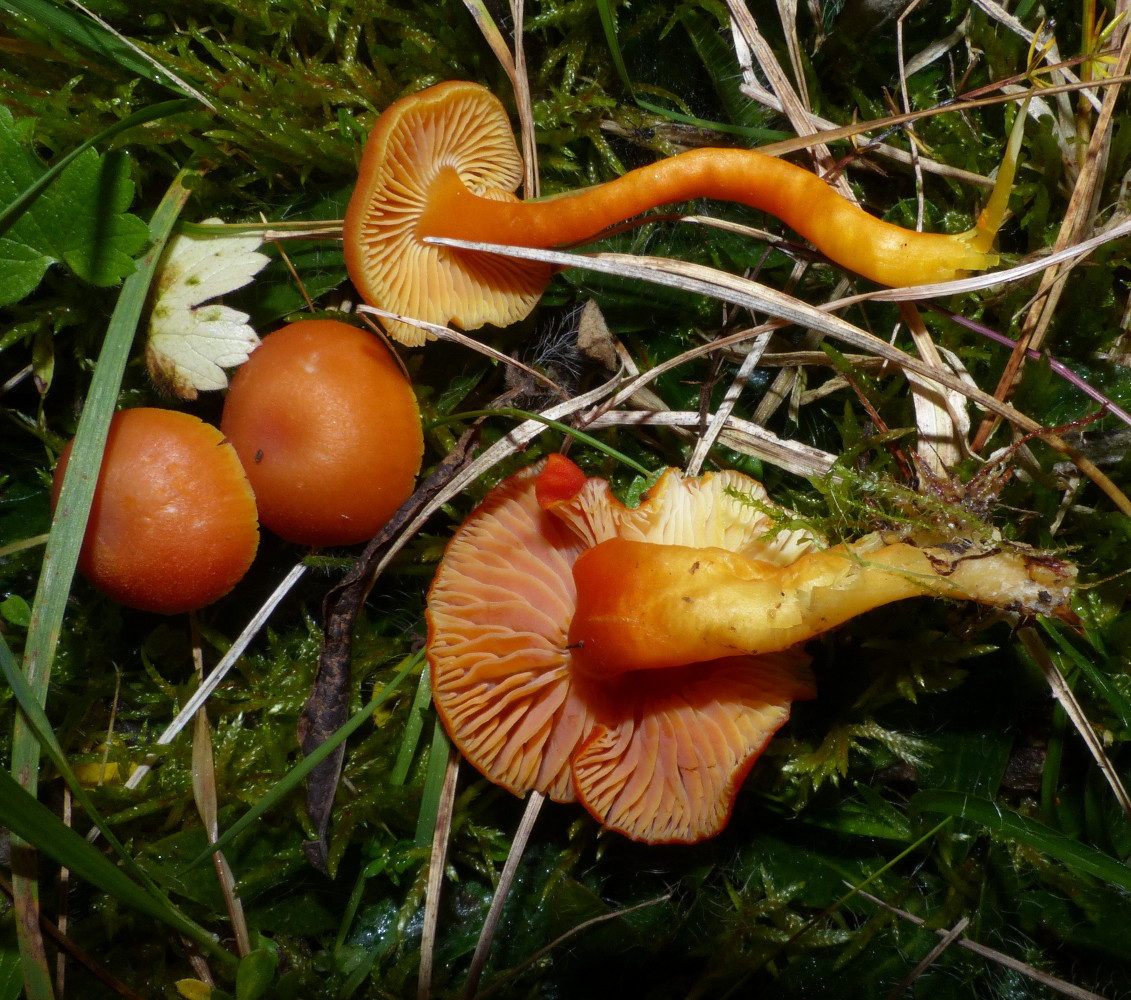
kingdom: Fungi
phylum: Basidiomycota
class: Agaricomycetes
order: Agaricales
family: Hygrophoraceae
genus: Hygrocybe
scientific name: Hygrocybe miniata
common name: mønje-vokshat
